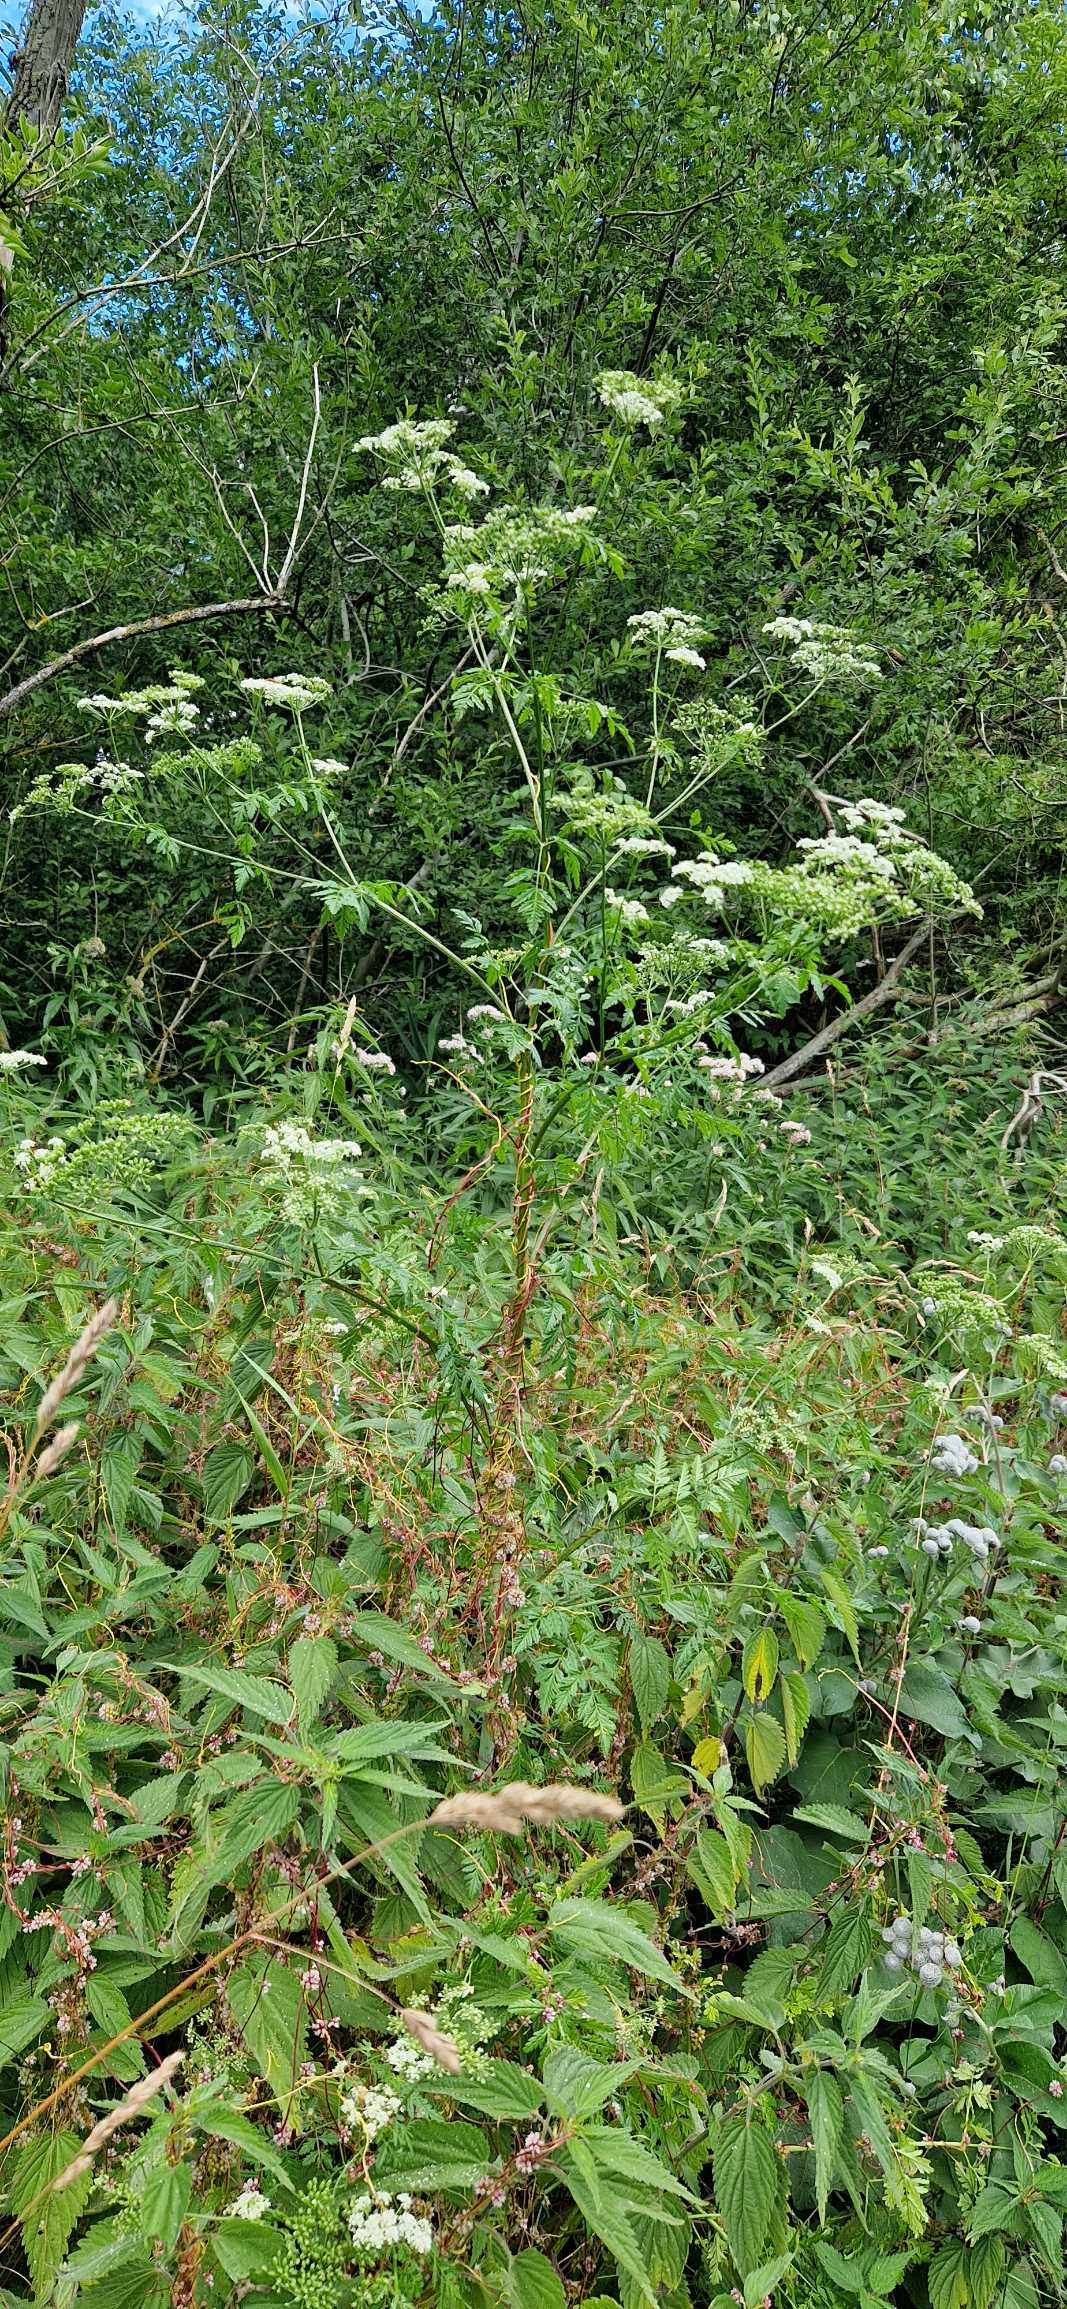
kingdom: Plantae
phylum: Tracheophyta
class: Magnoliopsida
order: Apiales
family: Apiaceae
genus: Conium
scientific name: Conium maculatum
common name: Skarntyde
